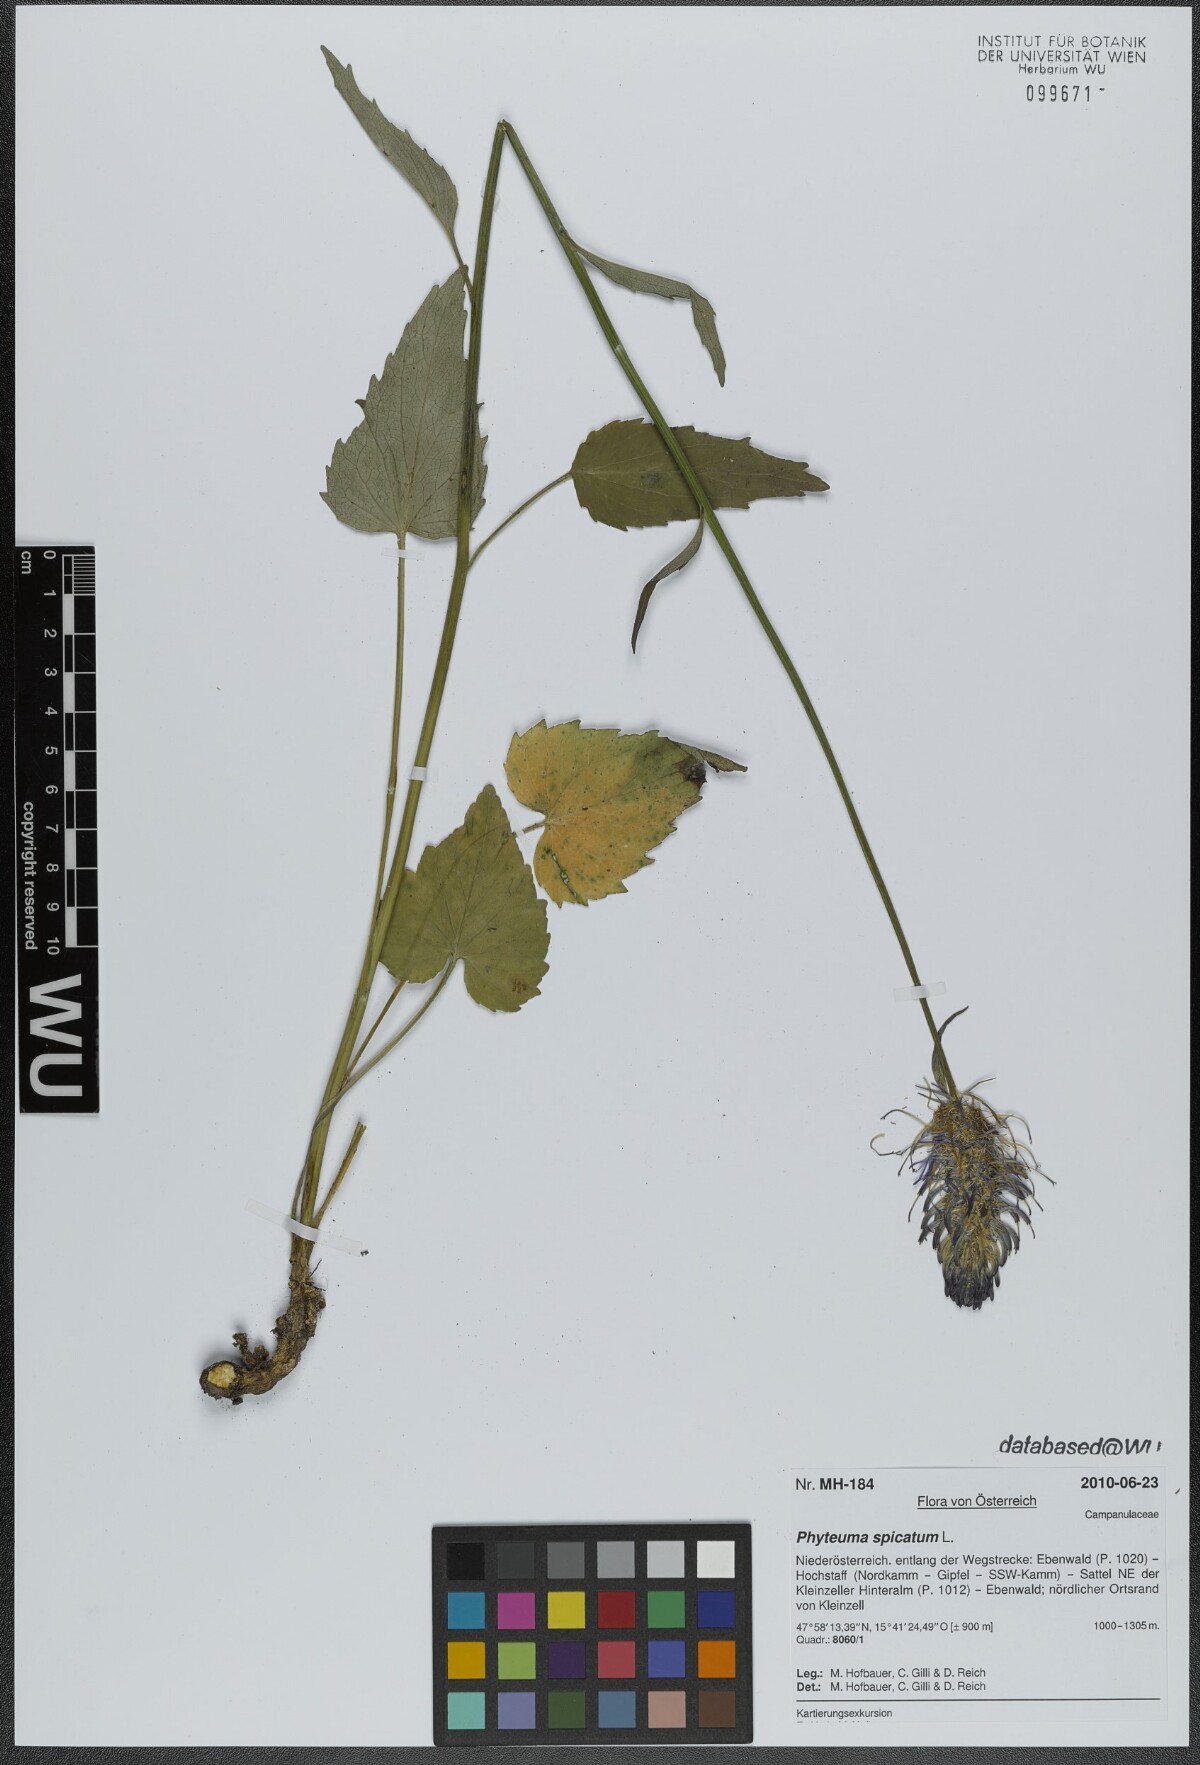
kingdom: Plantae
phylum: Tracheophyta
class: Magnoliopsida
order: Asterales
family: Campanulaceae
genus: Phyteuma
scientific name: Phyteuma spicatum
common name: Spiked rampion
